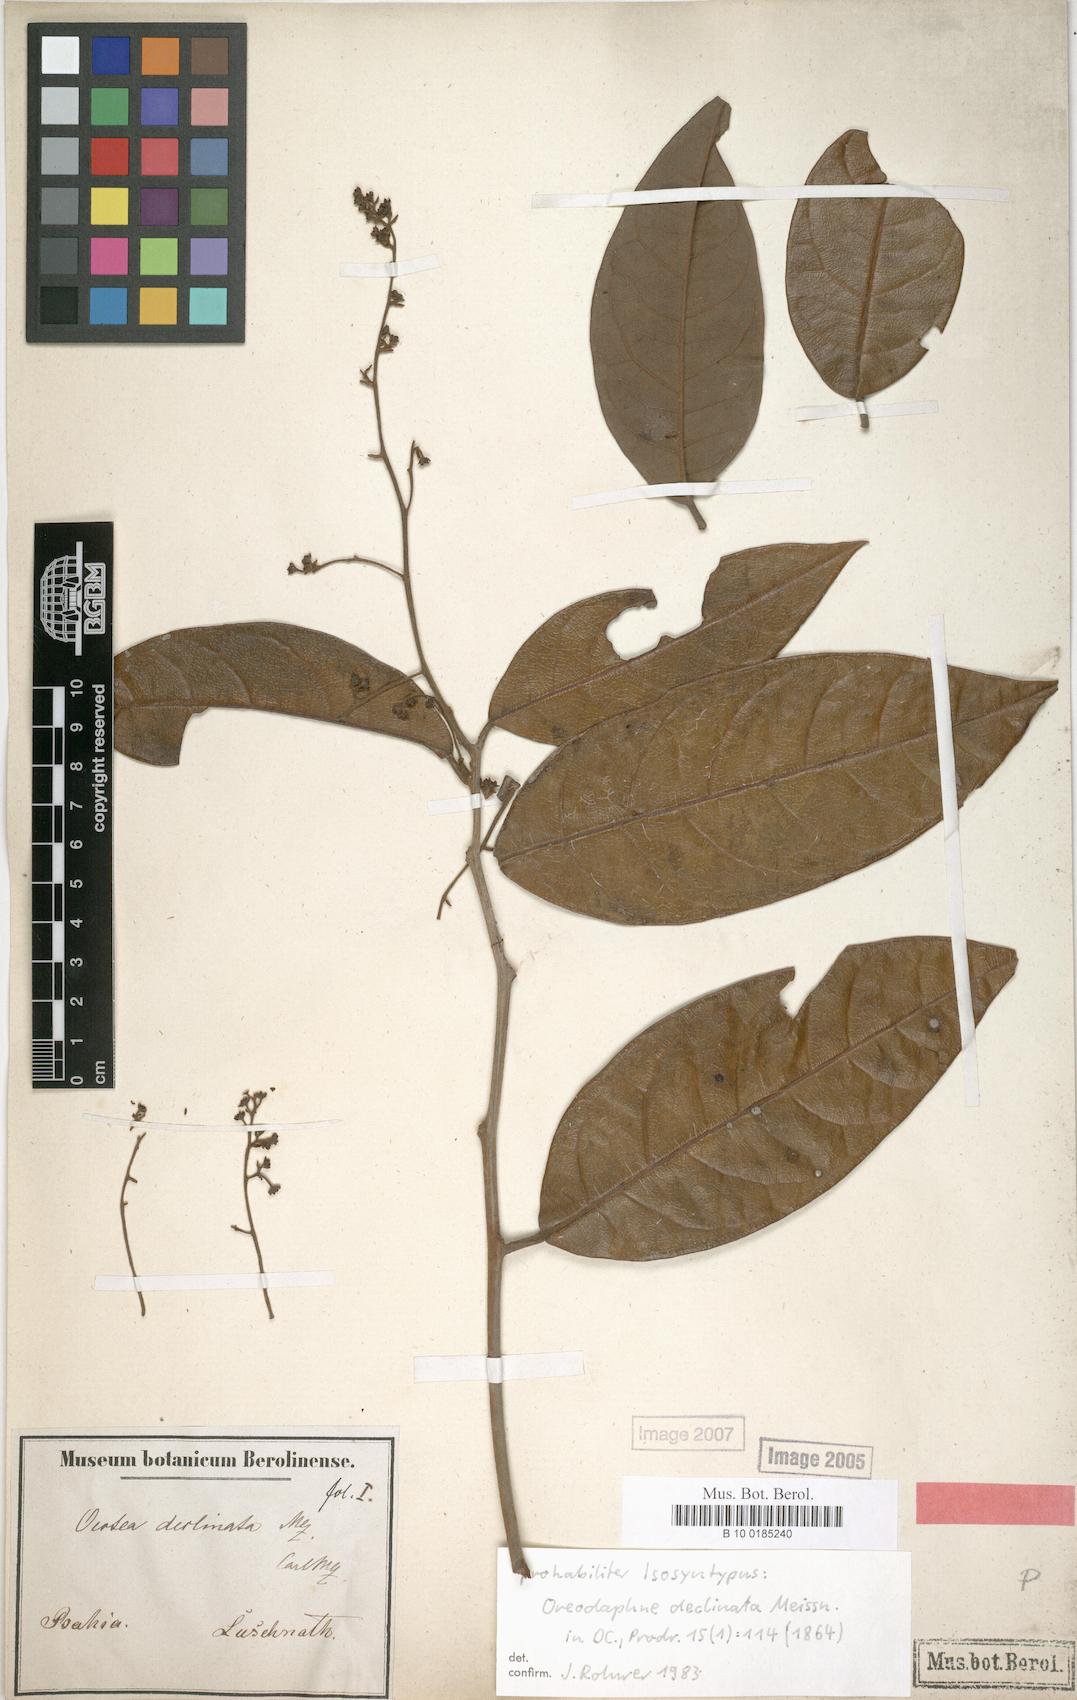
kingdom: Plantae
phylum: Tracheophyta
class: Magnoliopsida
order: Laurales
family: Lauraceae
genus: Ocotea
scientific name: Ocotea deflexa
